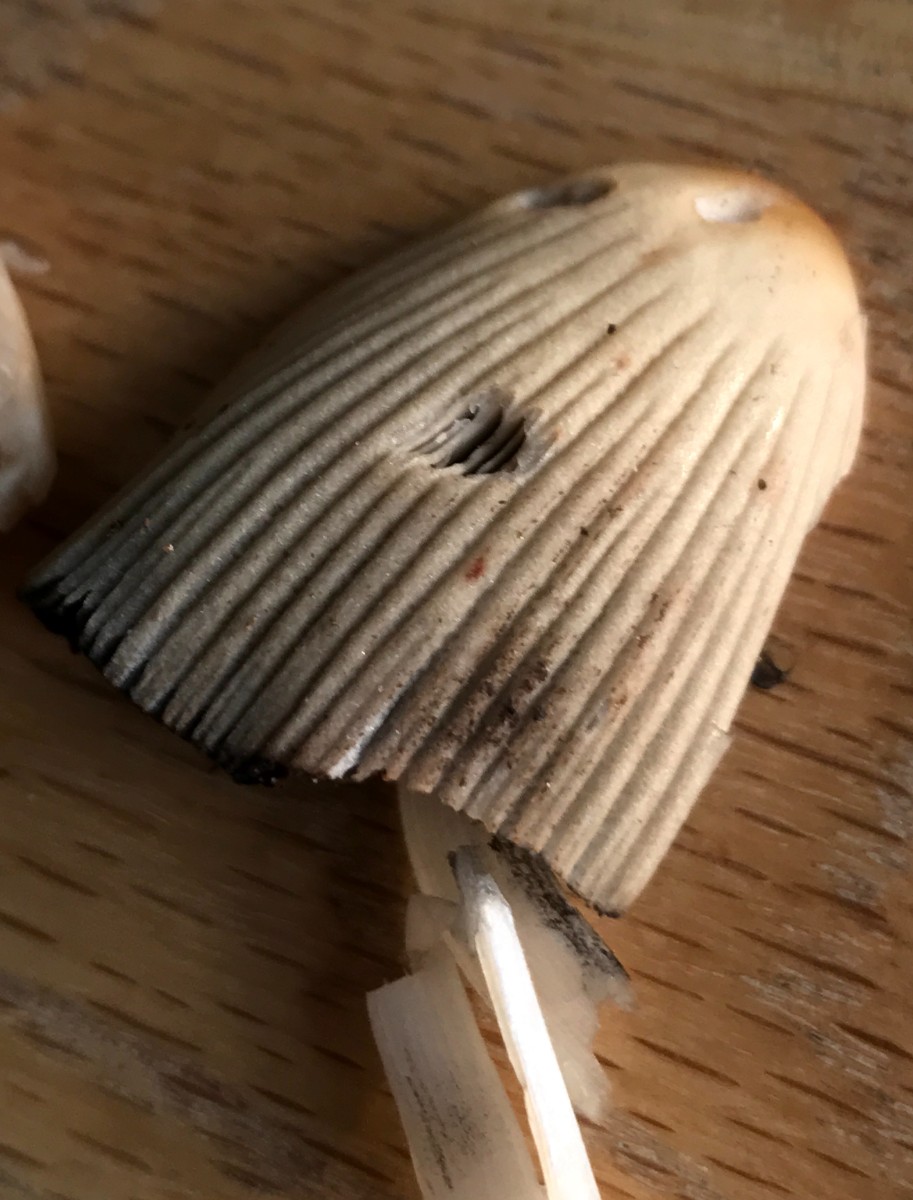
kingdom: Fungi
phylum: Basidiomycota
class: Agaricomycetes
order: Agaricales
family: Psathyrellaceae
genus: Coprinellus
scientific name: Coprinellus micaceus
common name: glimmer-blækhat
